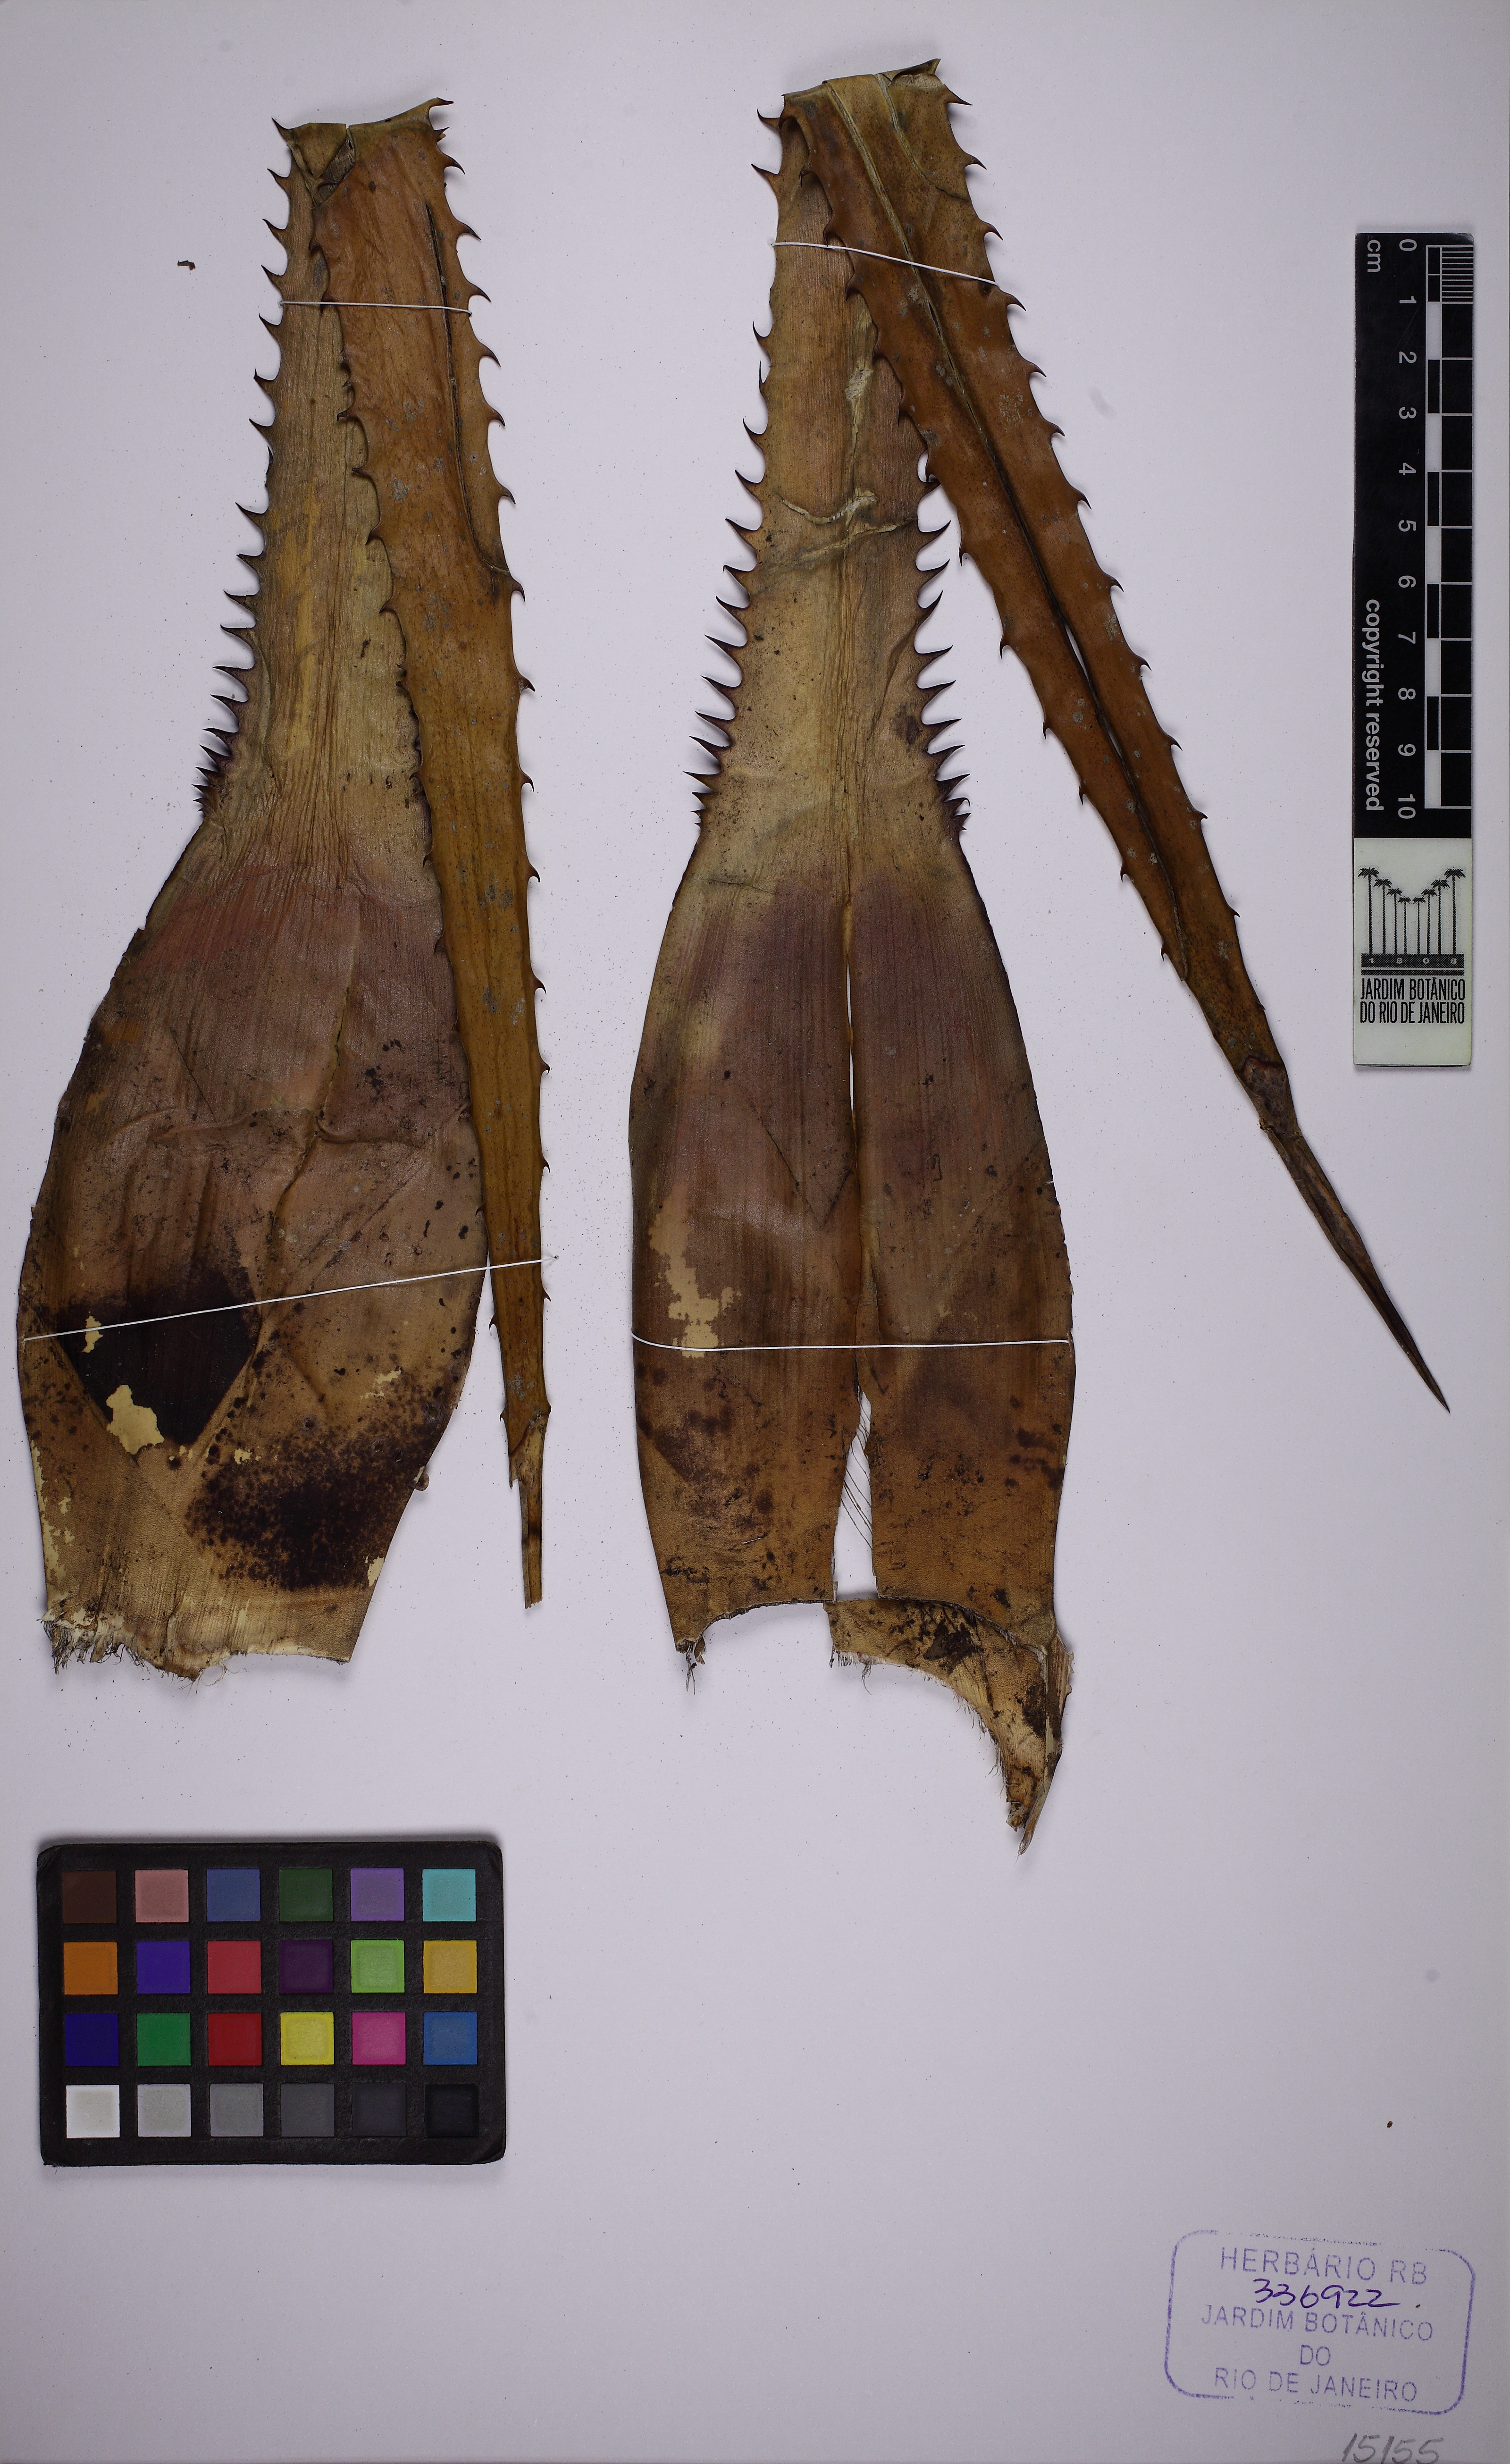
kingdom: Plantae
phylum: Tracheophyta
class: Liliopsida
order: Poales
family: Bromeliaceae
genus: Aechmea
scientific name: Aechmea phanerophlebia
